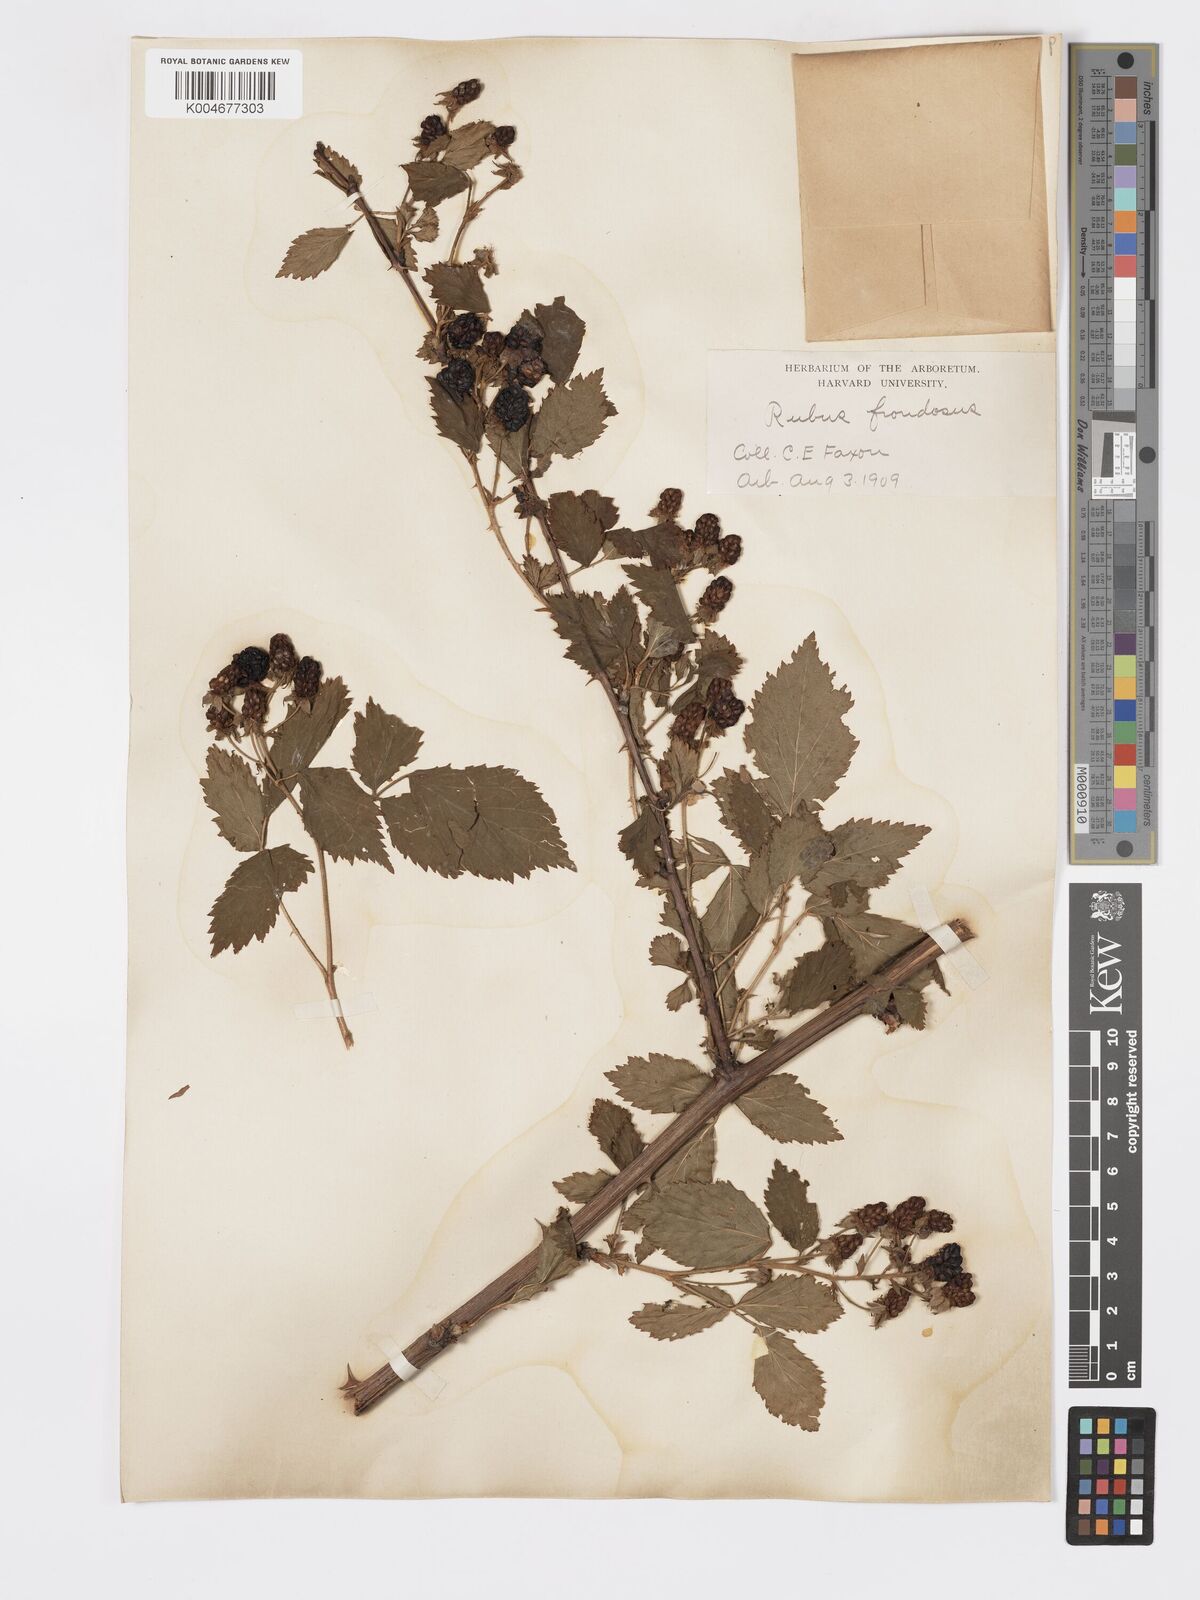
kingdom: Plantae
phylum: Tracheophyta
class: Magnoliopsida
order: Rosales
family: Rosaceae
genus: Rubus
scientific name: Rubus frondosus
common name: Yankee blackberry
